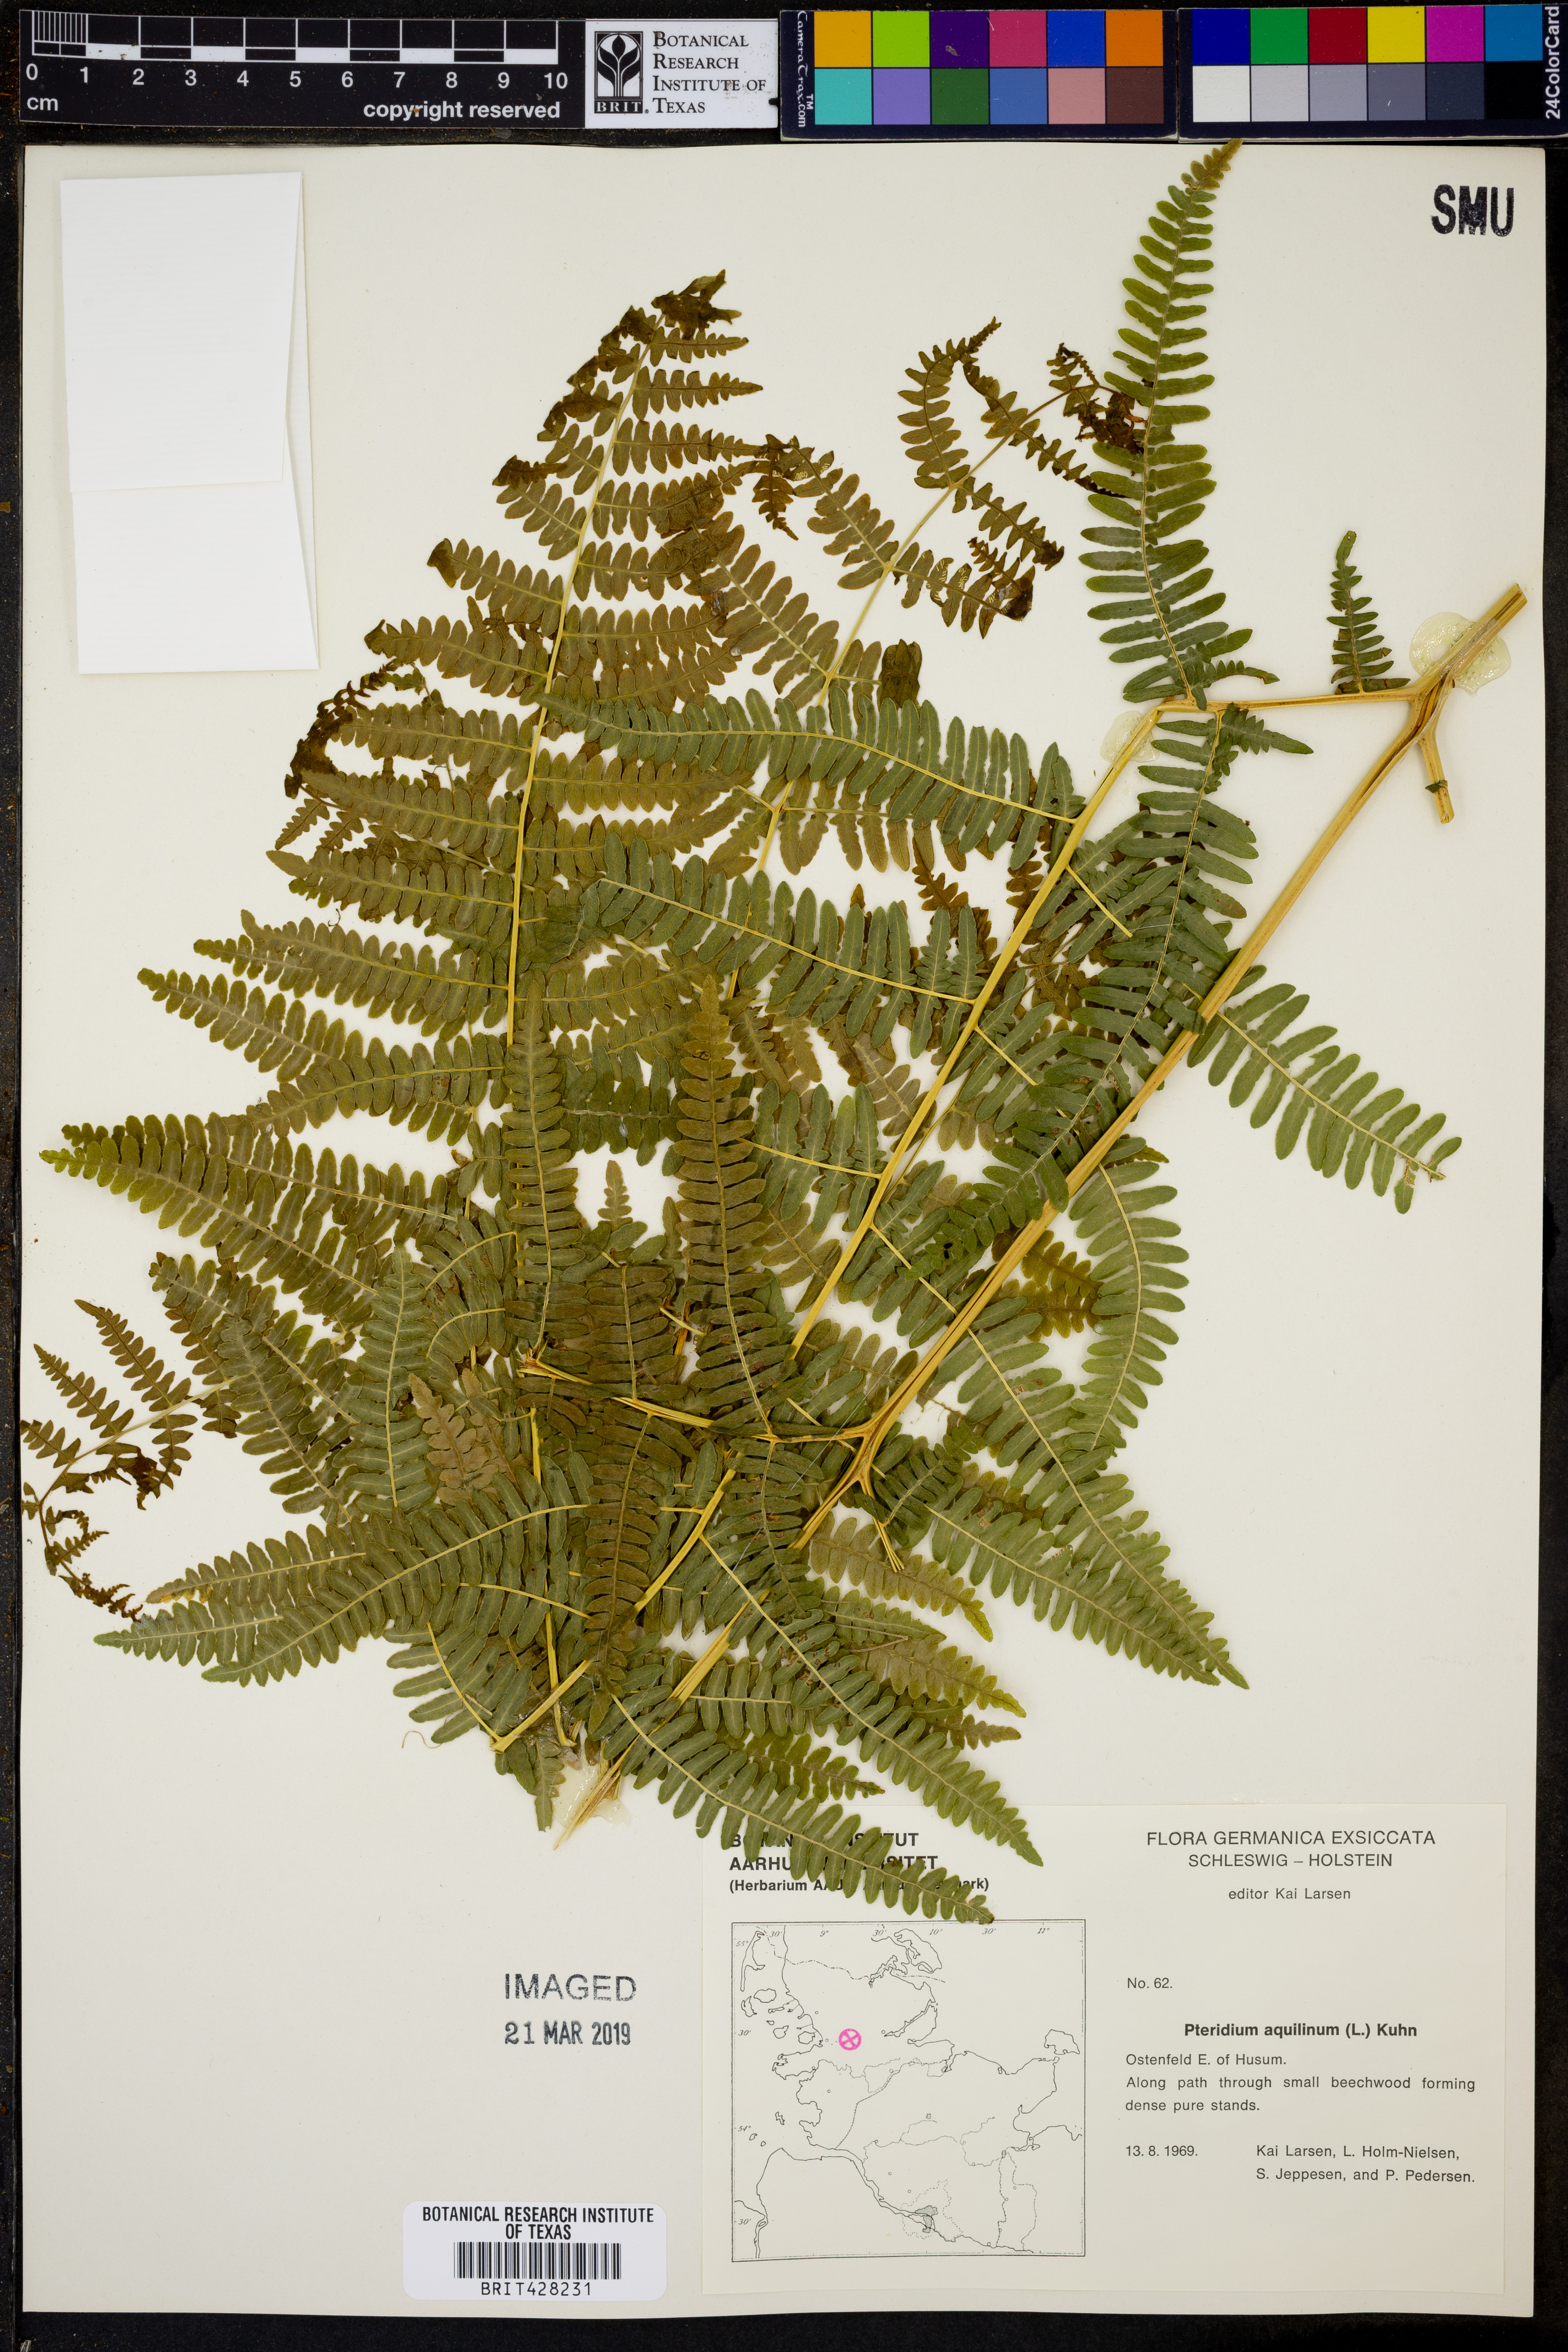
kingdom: Plantae
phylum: Tracheophyta
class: Polypodiopsida
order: Polypodiales
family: Dennstaedtiaceae
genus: Pteridium
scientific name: Pteridium aquilinum
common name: Bracken
